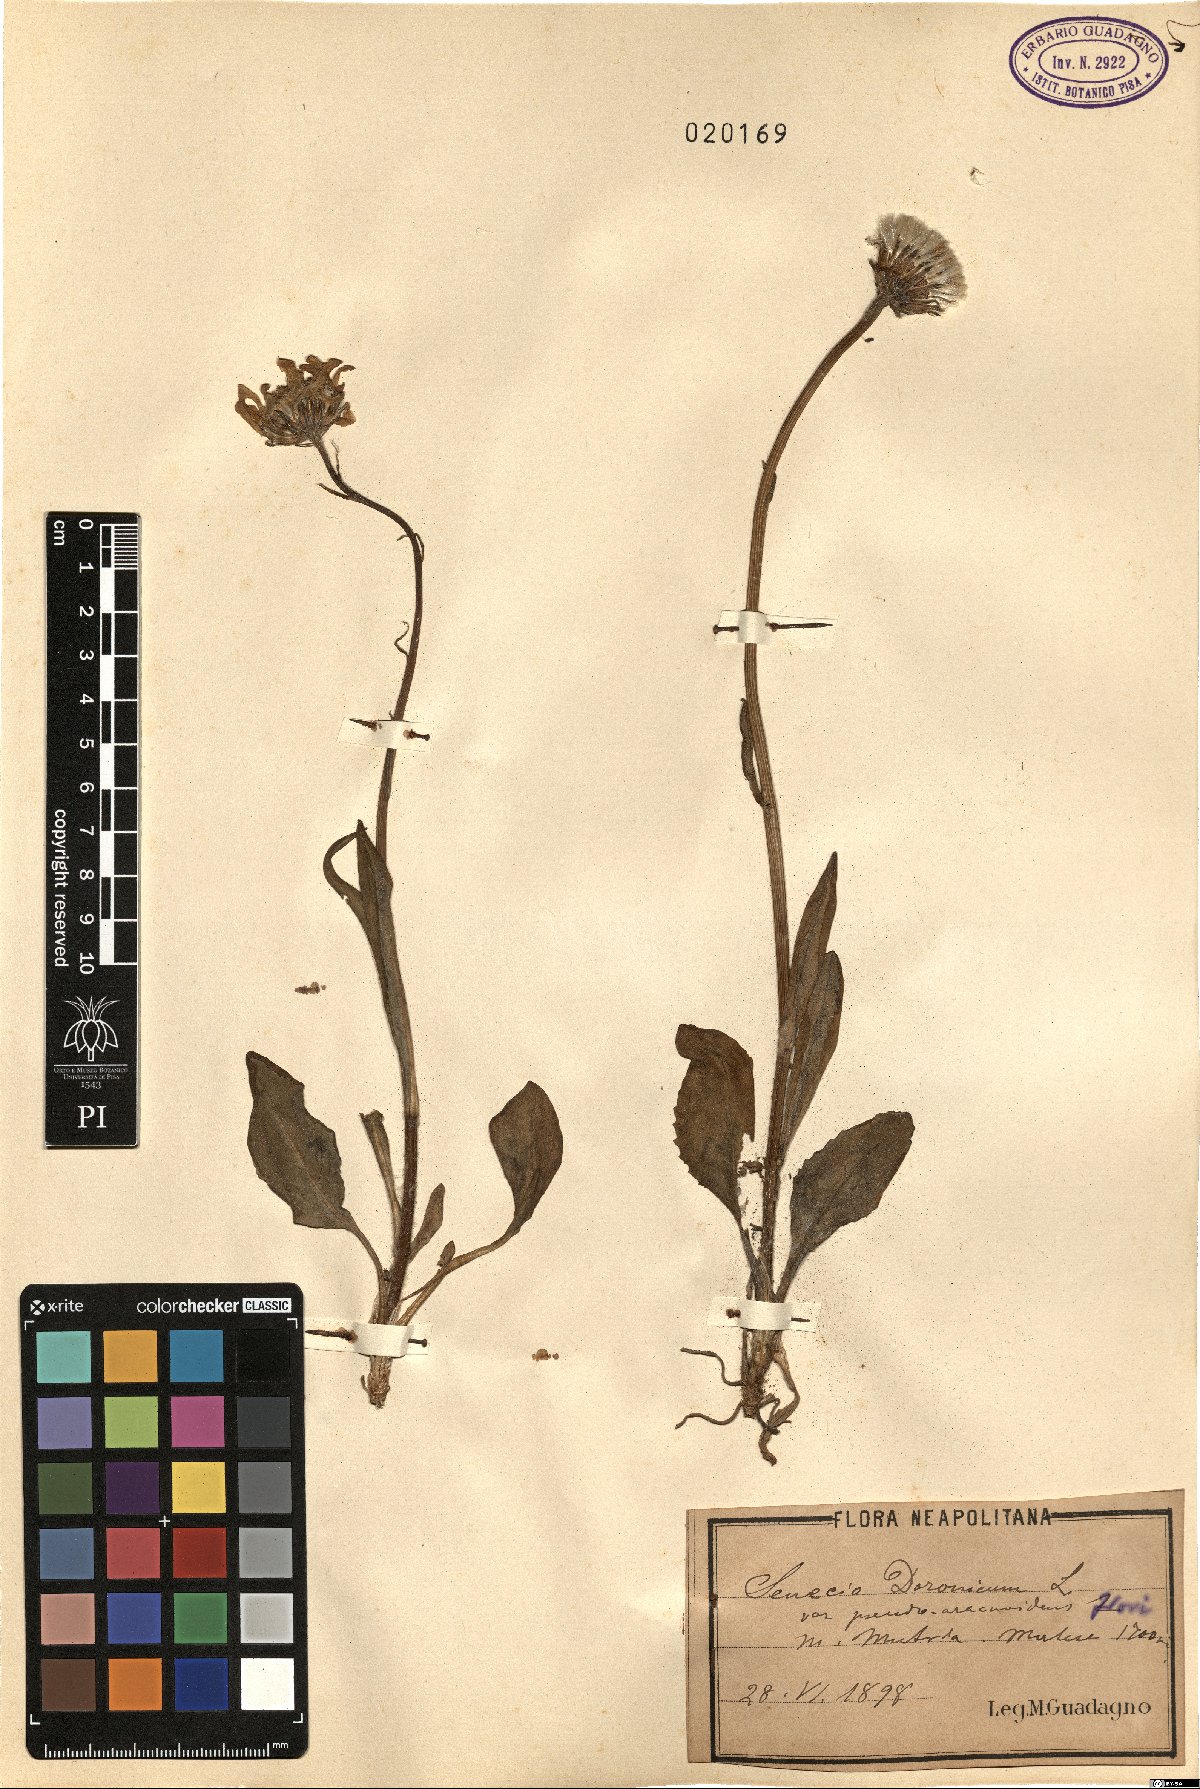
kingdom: Plantae
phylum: Tracheophyta
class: Magnoliopsida
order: Asterales
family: Asteraceae
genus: Senecio
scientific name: Senecio doronicum
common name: Chamois ragwort
